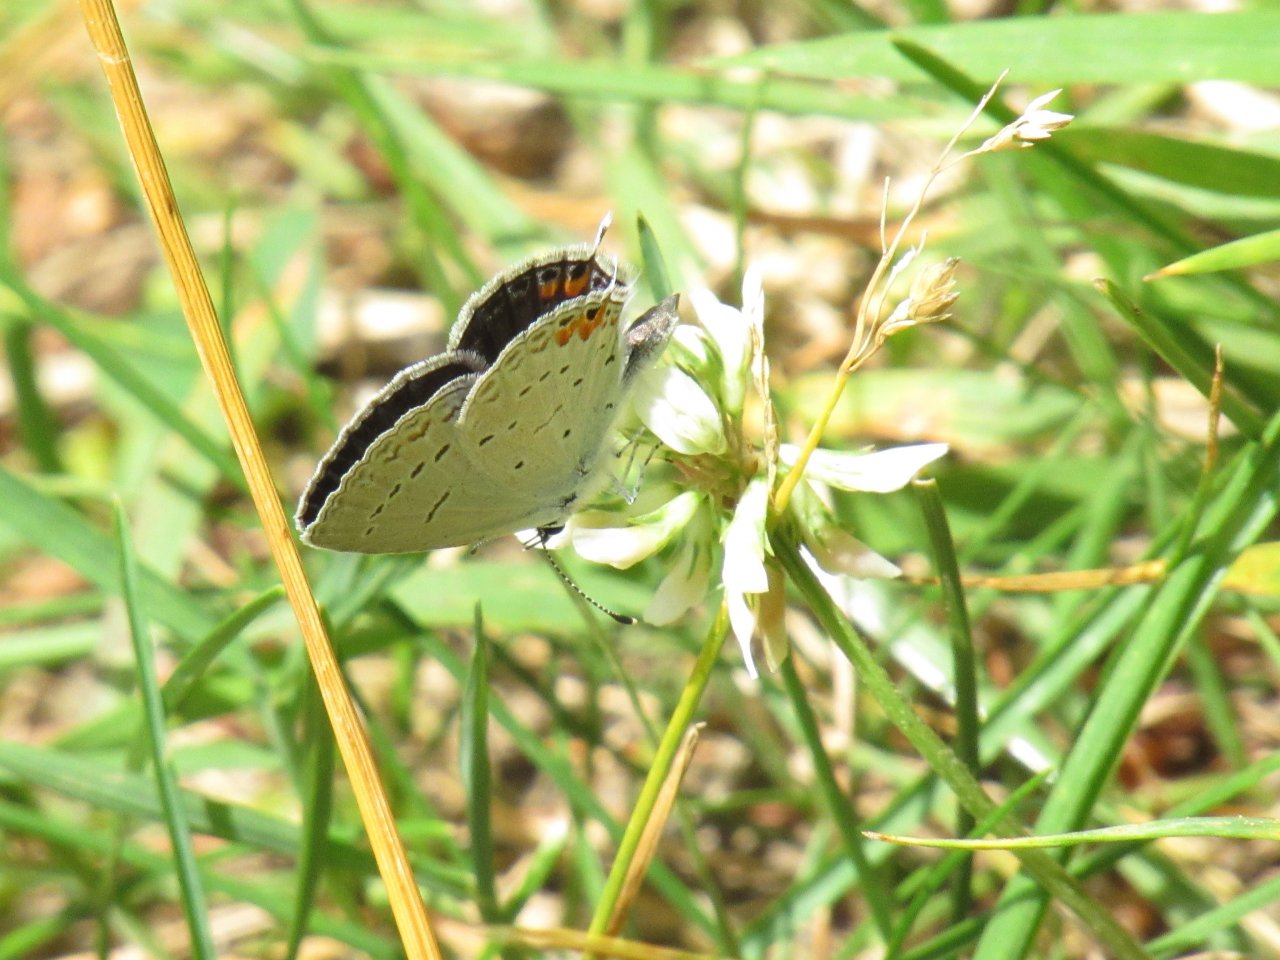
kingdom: Animalia
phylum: Arthropoda
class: Insecta
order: Lepidoptera
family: Lycaenidae
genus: Elkalyce
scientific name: Elkalyce comyntas
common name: Eastern Tailed-Blue
